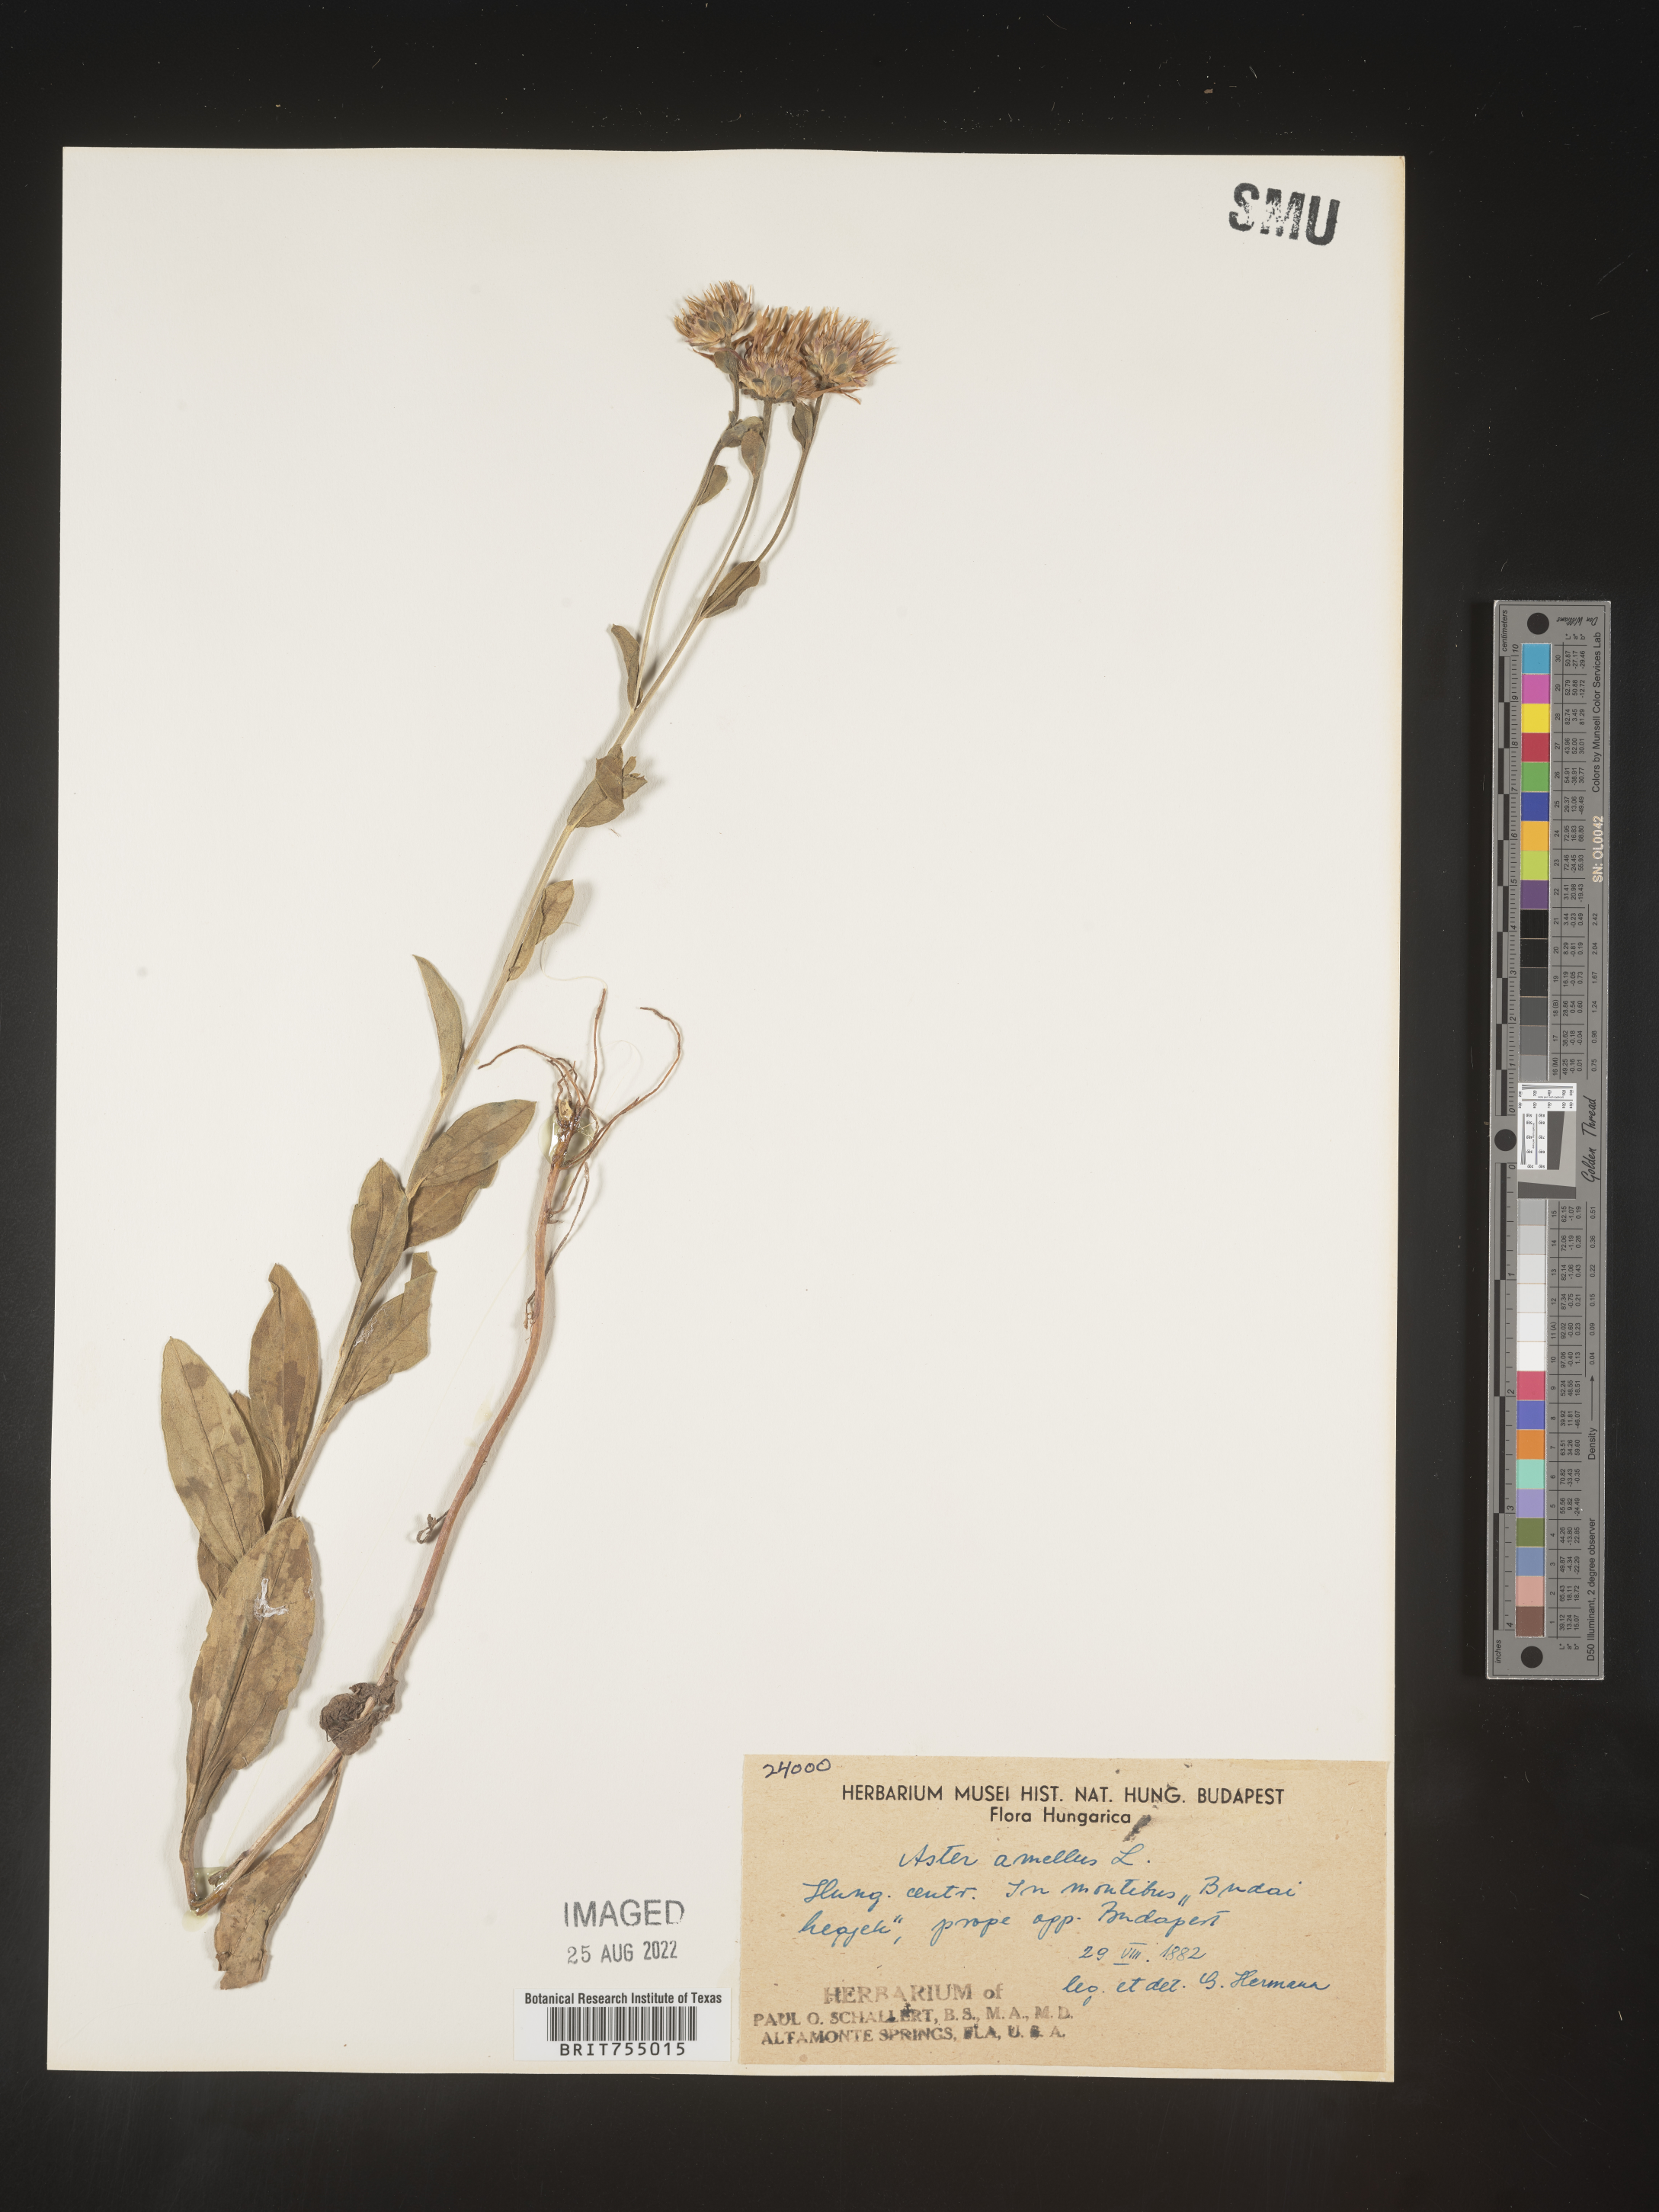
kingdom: Plantae
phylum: Tracheophyta
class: Magnoliopsida
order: Asterales
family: Asteraceae
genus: Symphyotrichum
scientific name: Symphyotrichum
